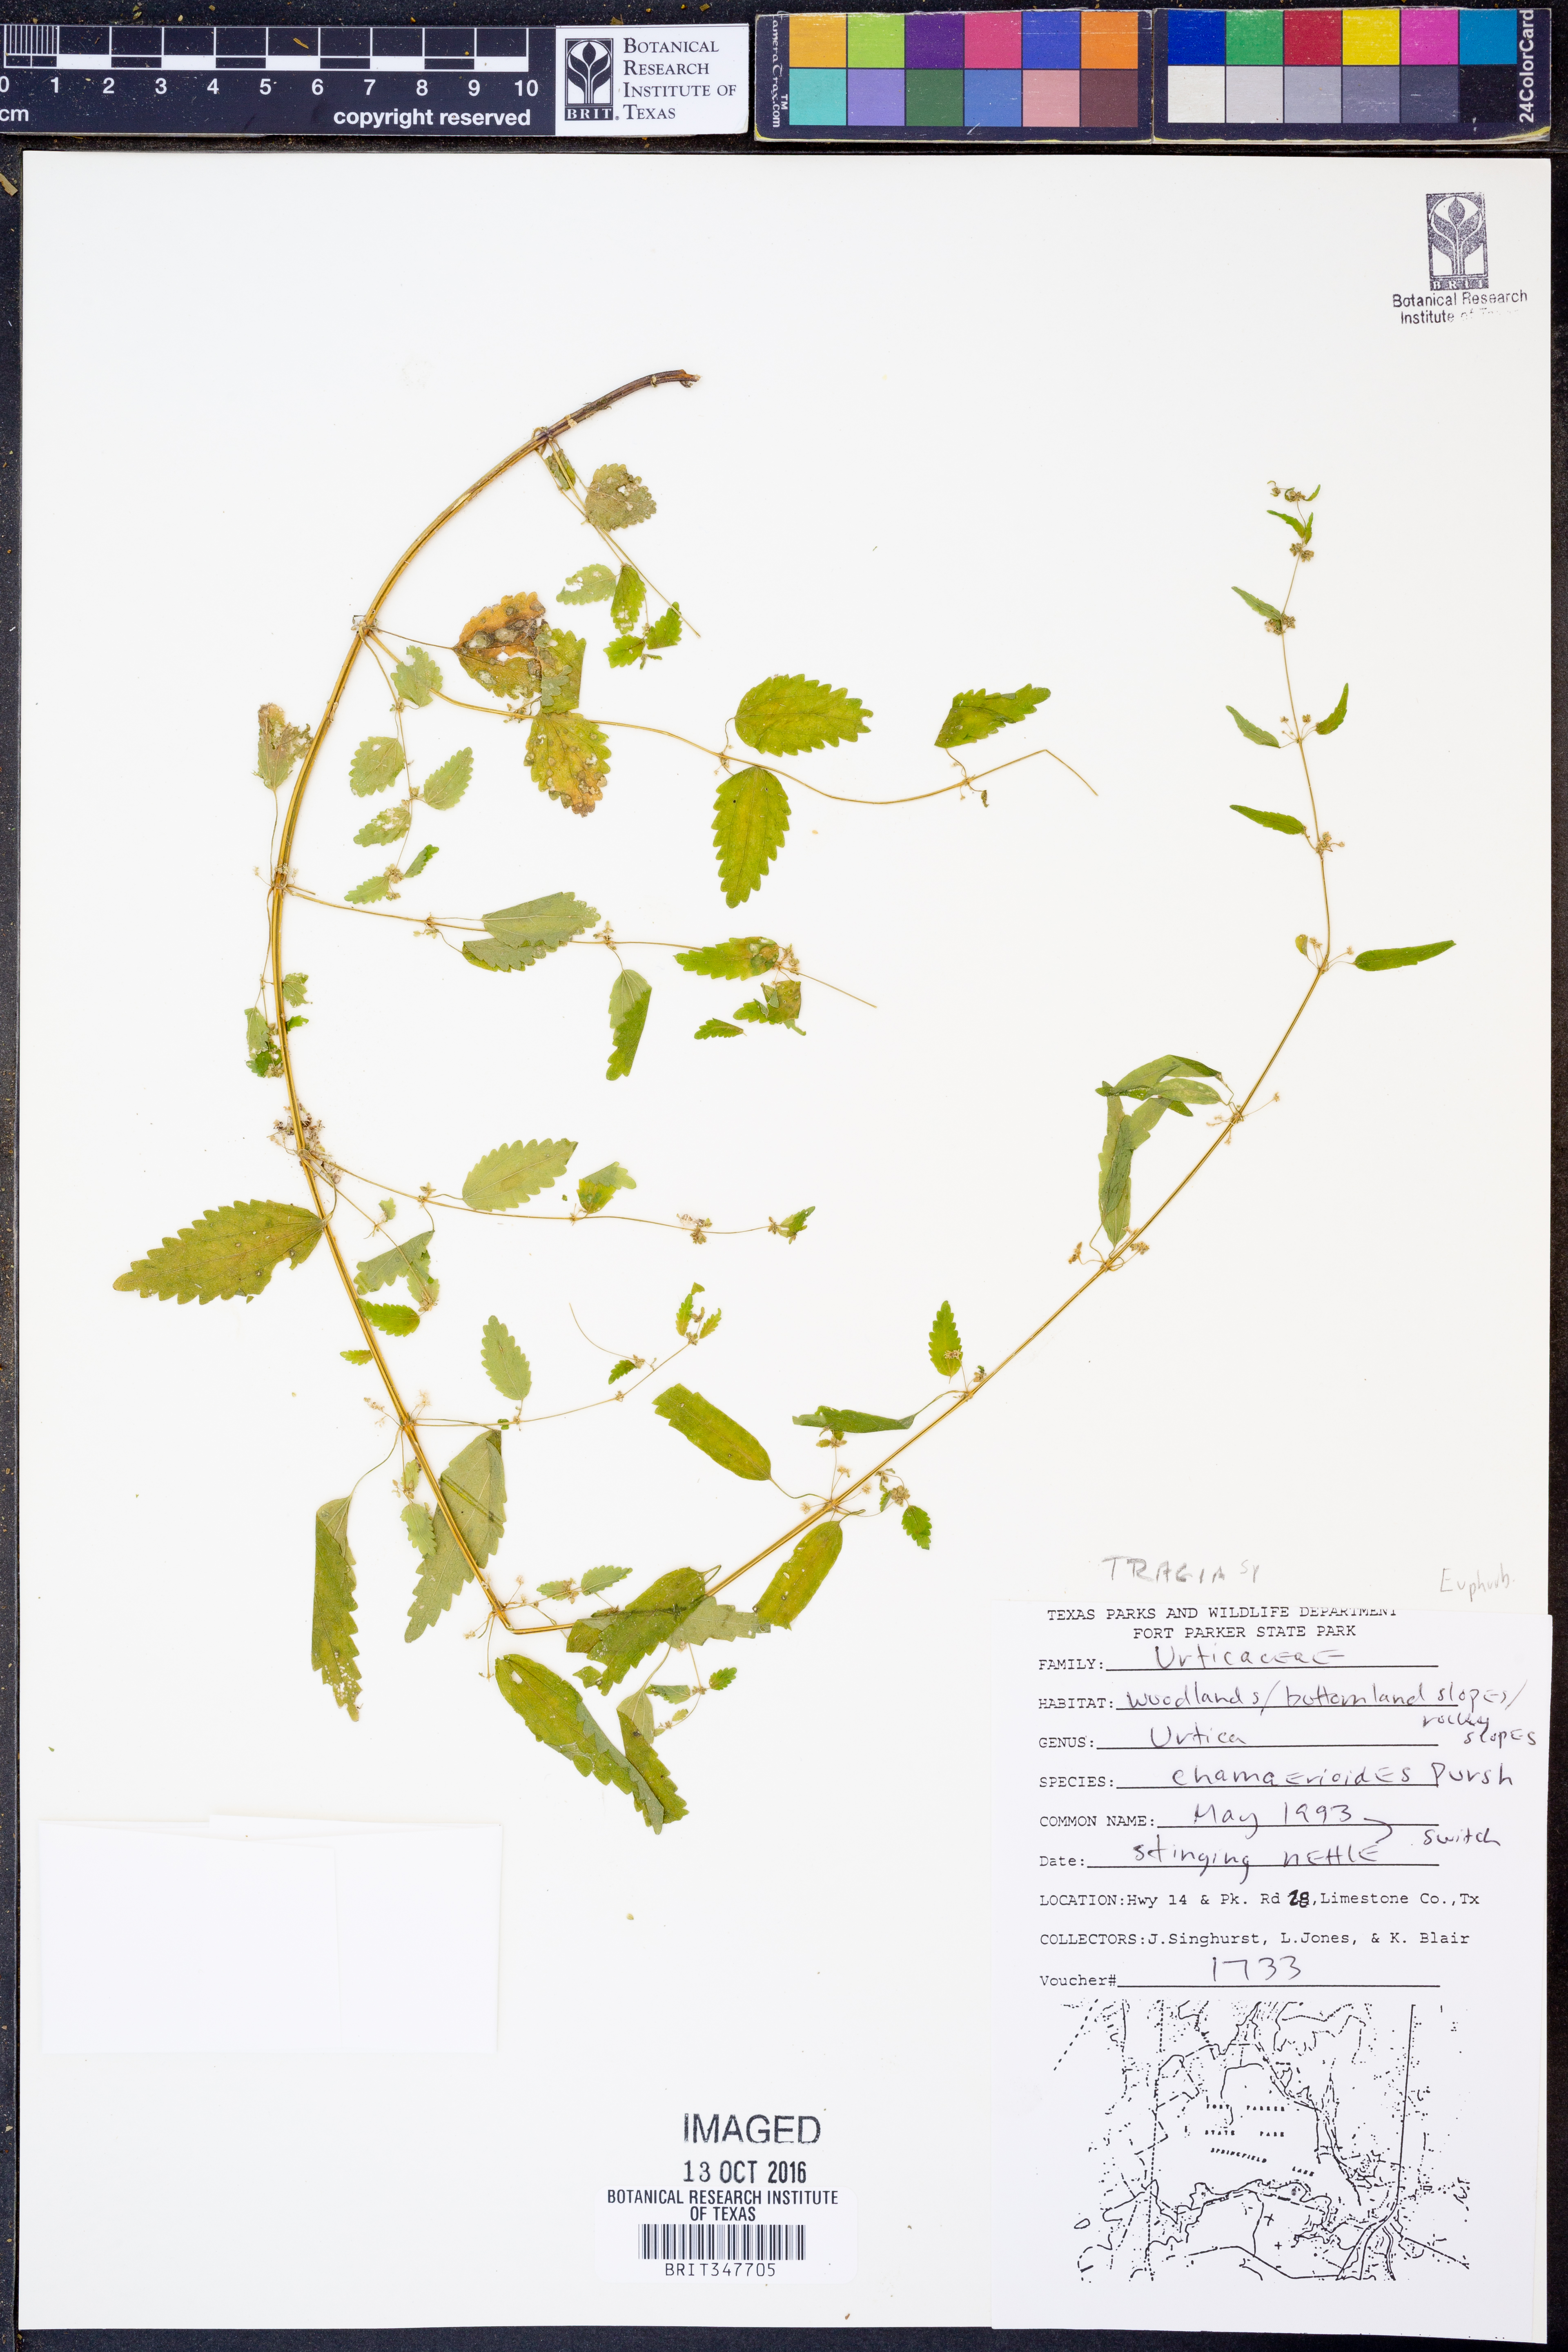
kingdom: Plantae
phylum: Tracheophyta
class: Magnoliopsida
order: Malpighiales
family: Euphorbiaceae
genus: Tragia
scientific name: Tragia
